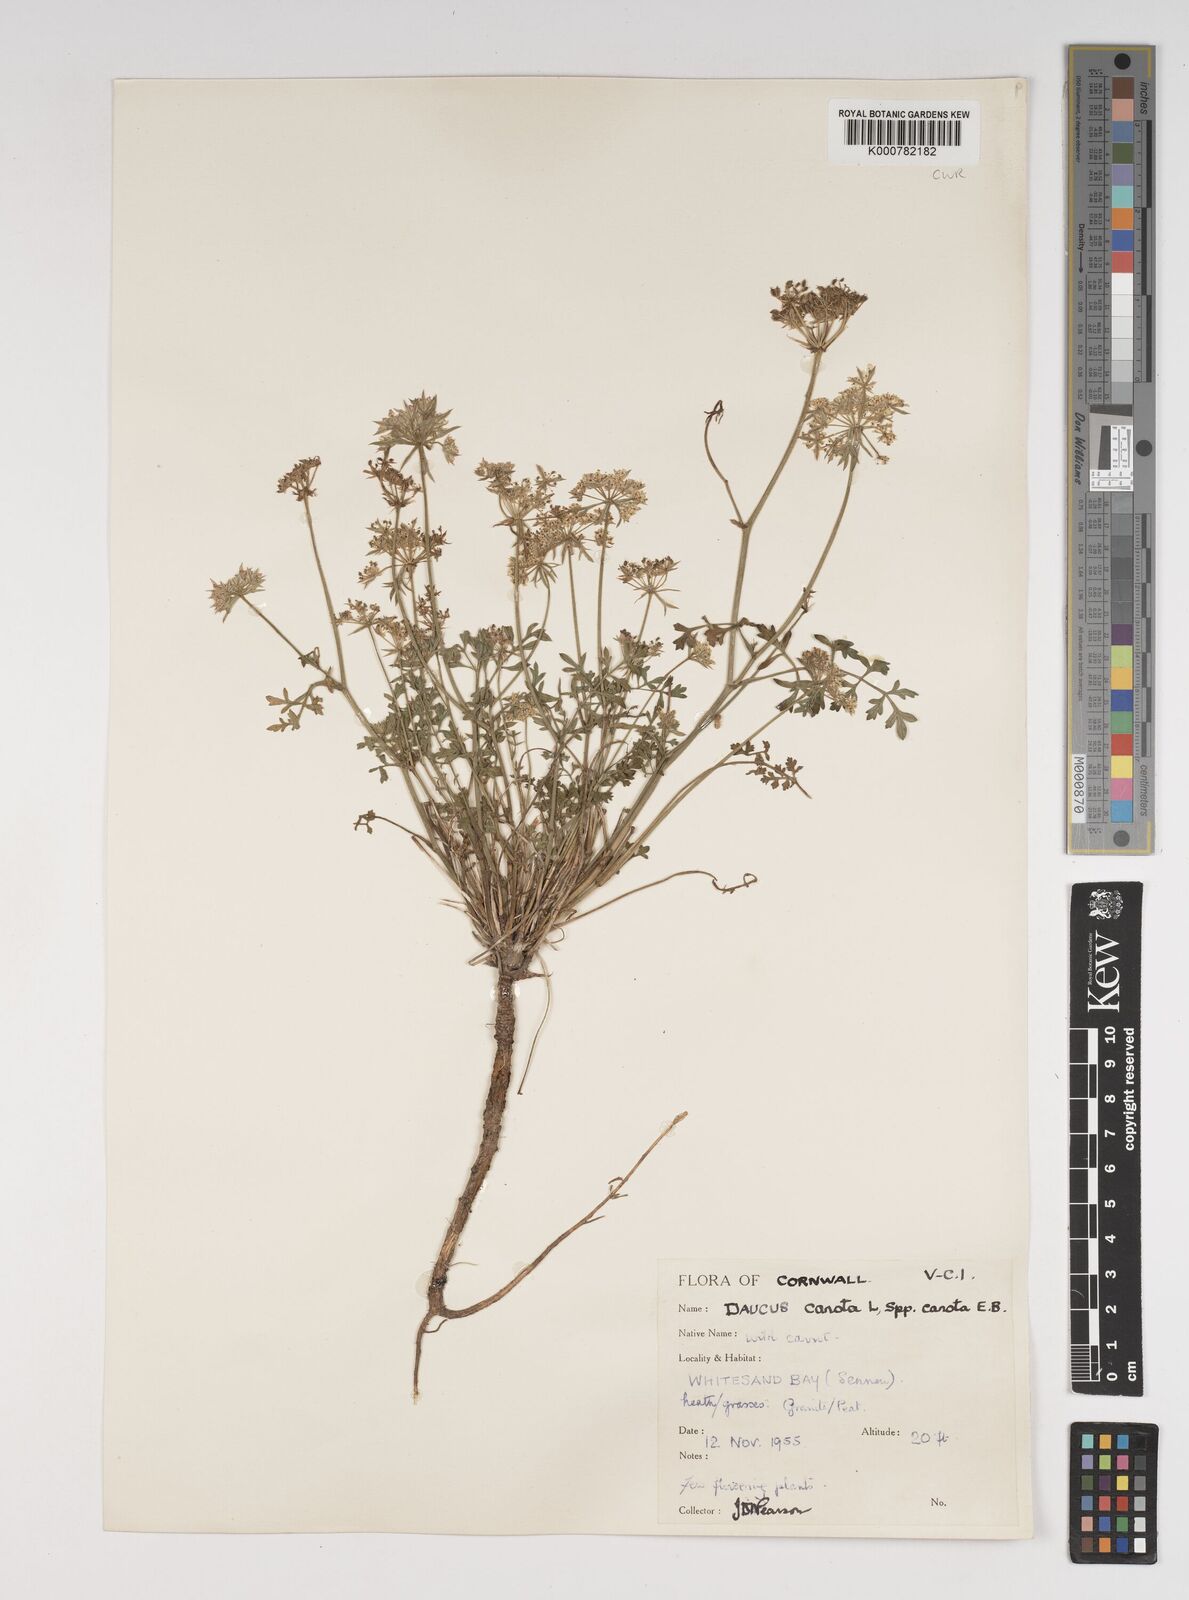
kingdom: Plantae
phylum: Tracheophyta
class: Magnoliopsida
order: Apiales
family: Apiaceae
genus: Daucus
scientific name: Daucus carota
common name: Wild carrot
